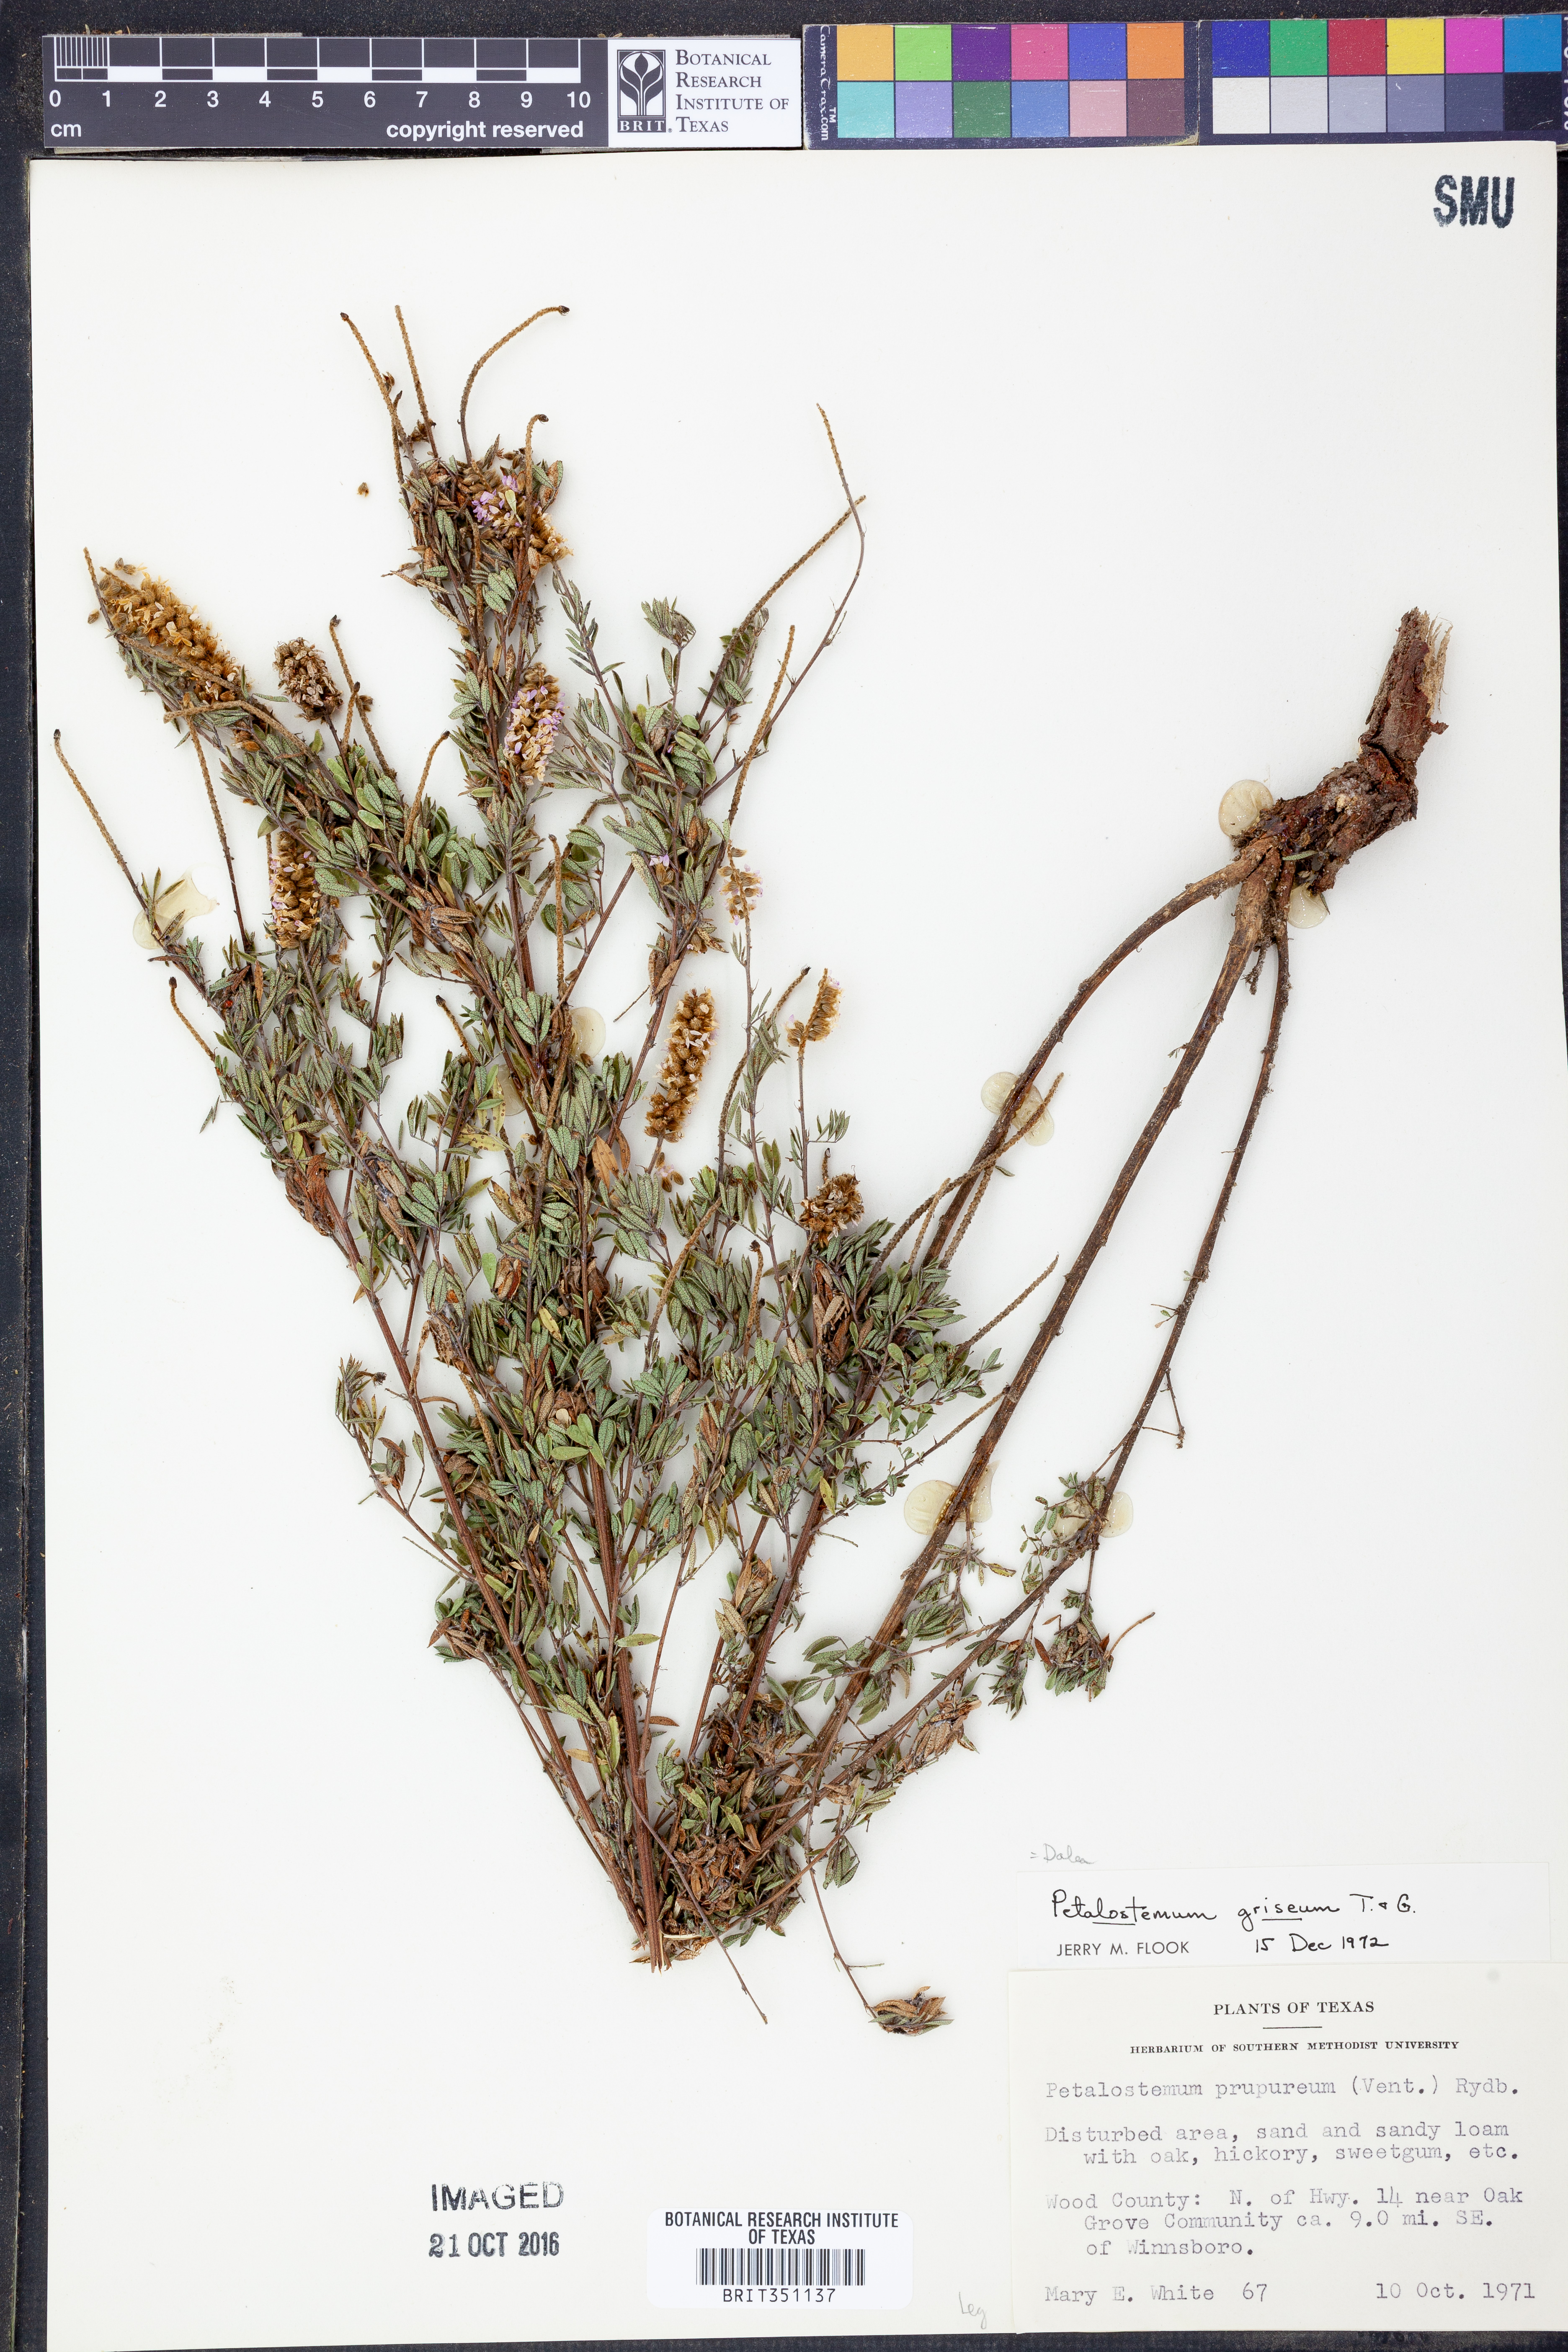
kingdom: Plantae
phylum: Tracheophyta
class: Magnoliopsida
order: Fabales
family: Fabaceae
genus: Dalea
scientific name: Dalea villosa
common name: Silky prairie-clover
